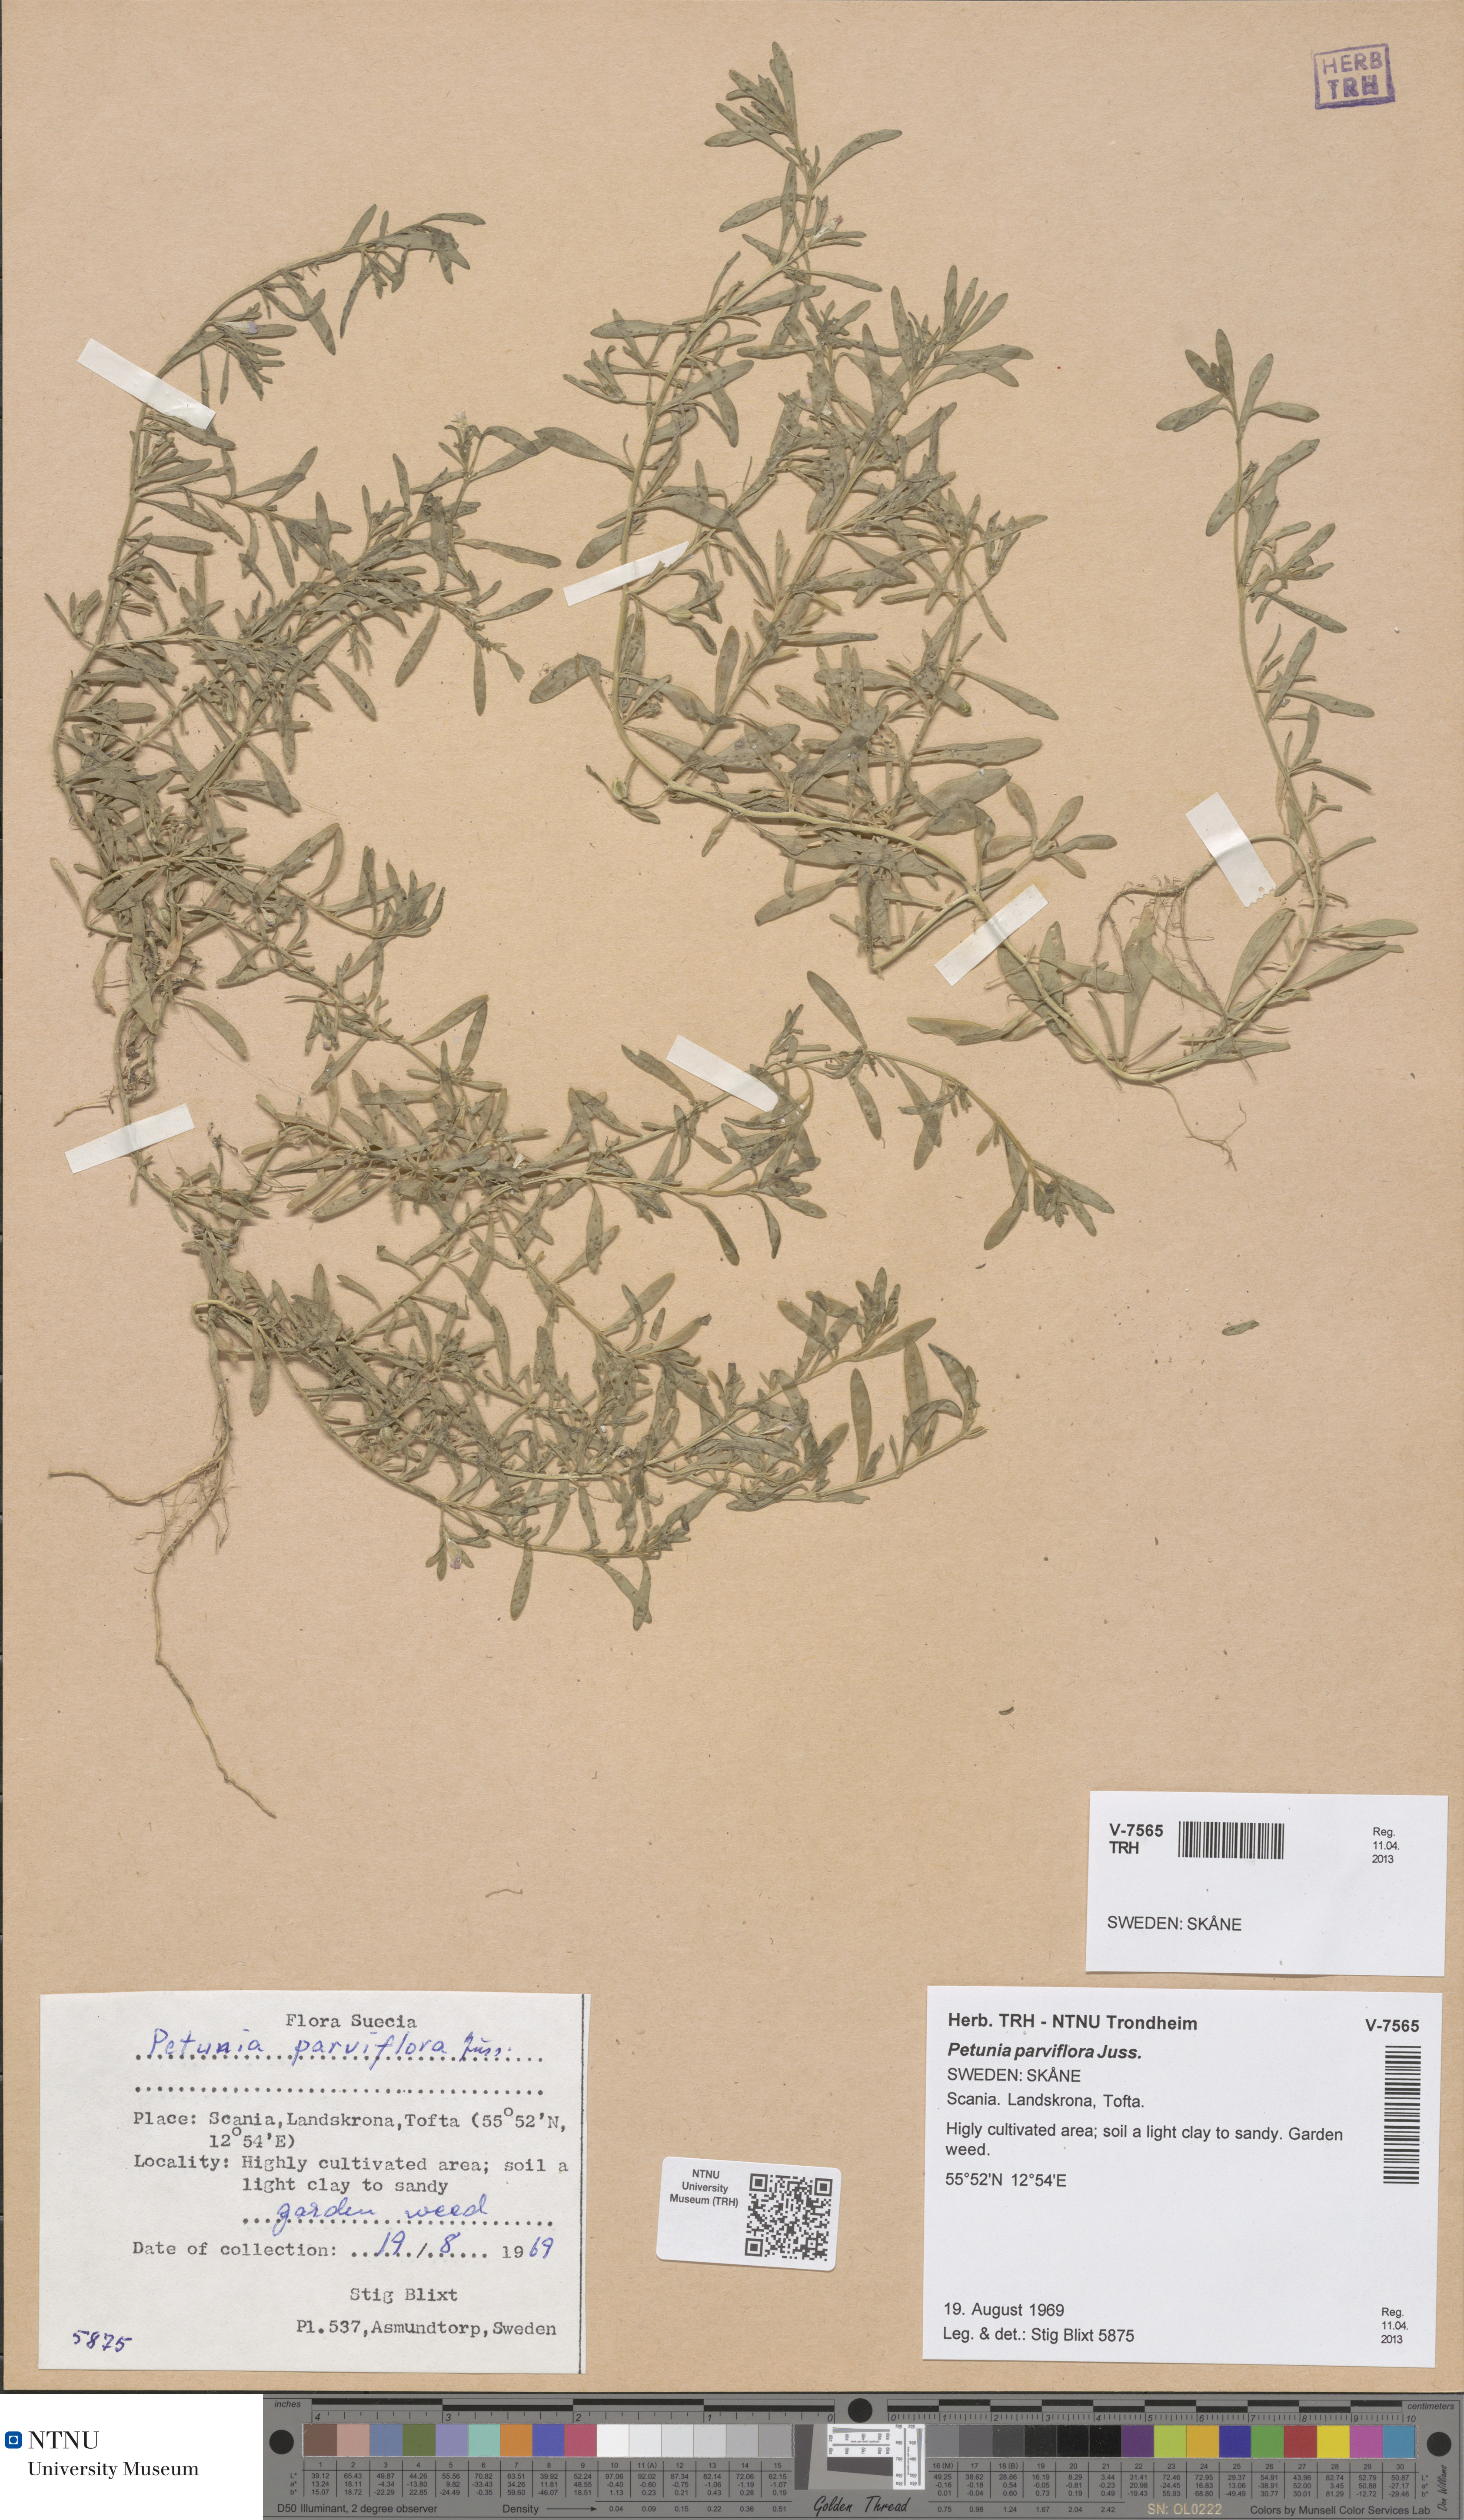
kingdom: Plantae
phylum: Tracheophyta
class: Magnoliopsida
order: Solanales
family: Solanaceae
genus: Calibrachoa
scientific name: Calibrachoa parviflora
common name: Seaside petunia
